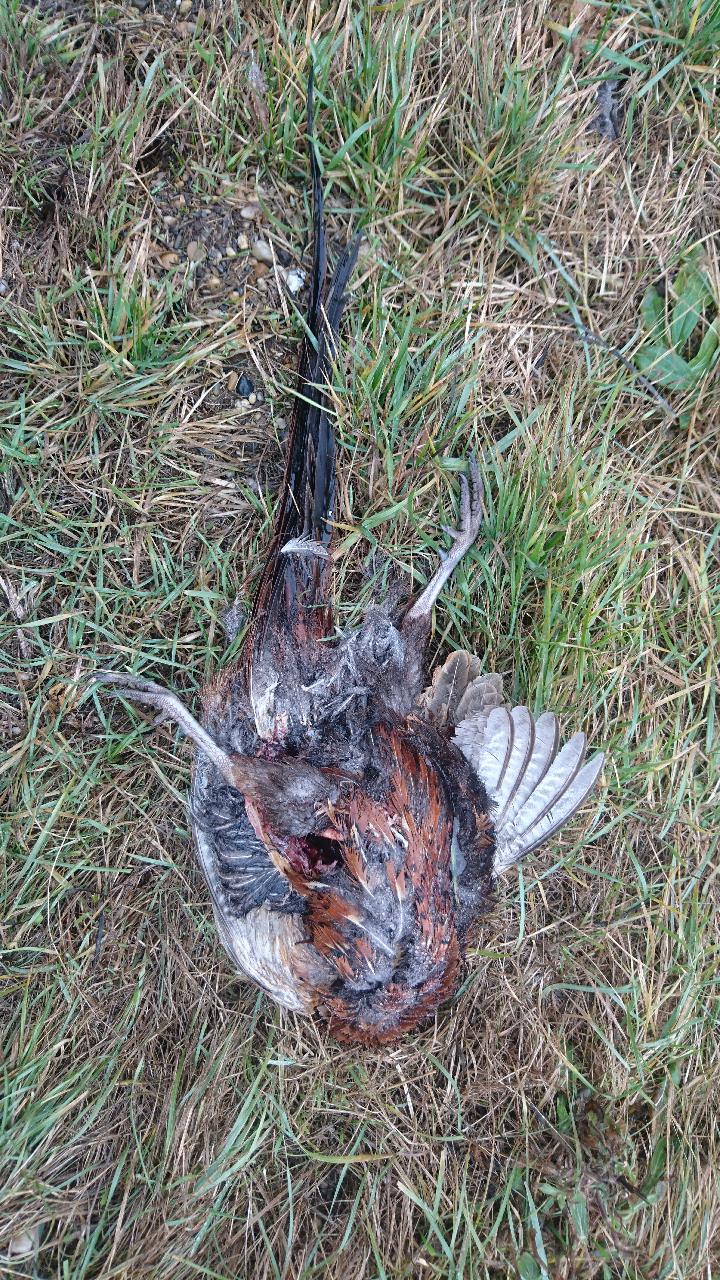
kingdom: Animalia
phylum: Chordata
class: Aves
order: Galliformes
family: Phasianidae
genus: Phasianus
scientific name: Phasianus colchicus
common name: Common pheasant
